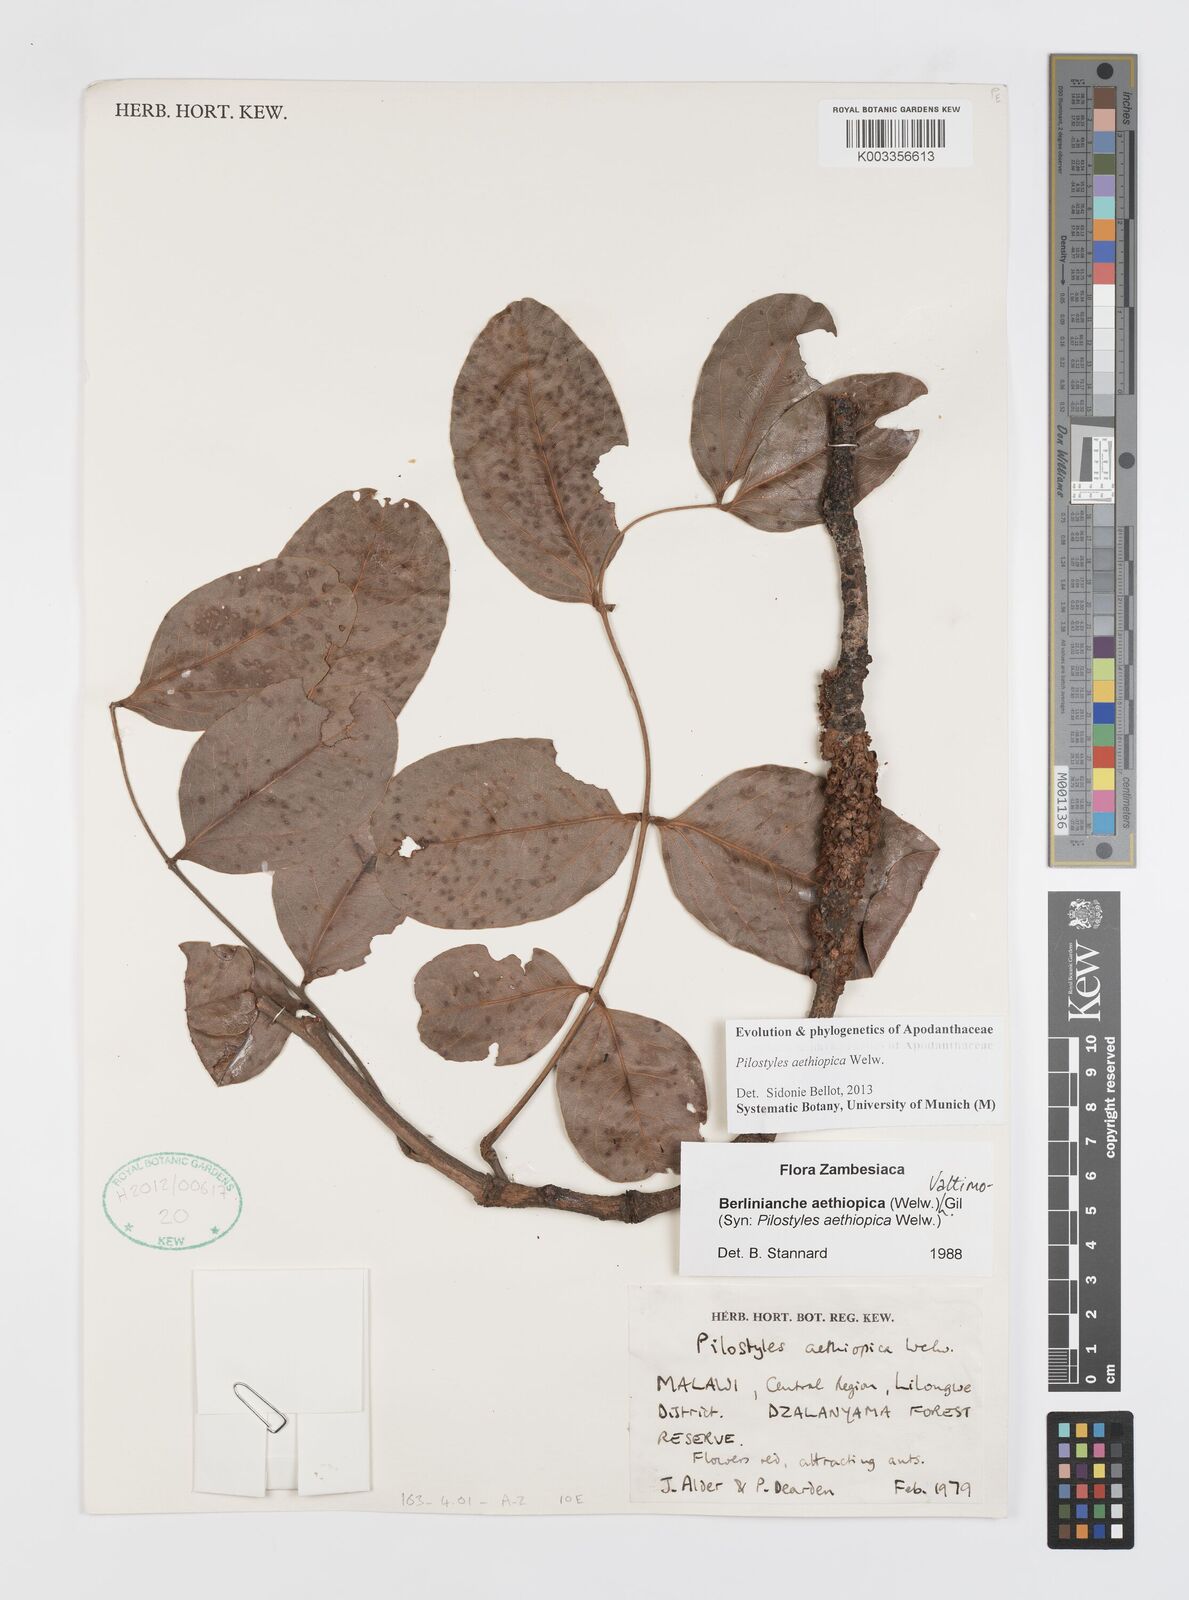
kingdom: Plantae
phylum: Tracheophyta
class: Magnoliopsida
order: Cucurbitales
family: Apodanthaceae
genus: Pilostyles
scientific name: Pilostyles aethiopica
